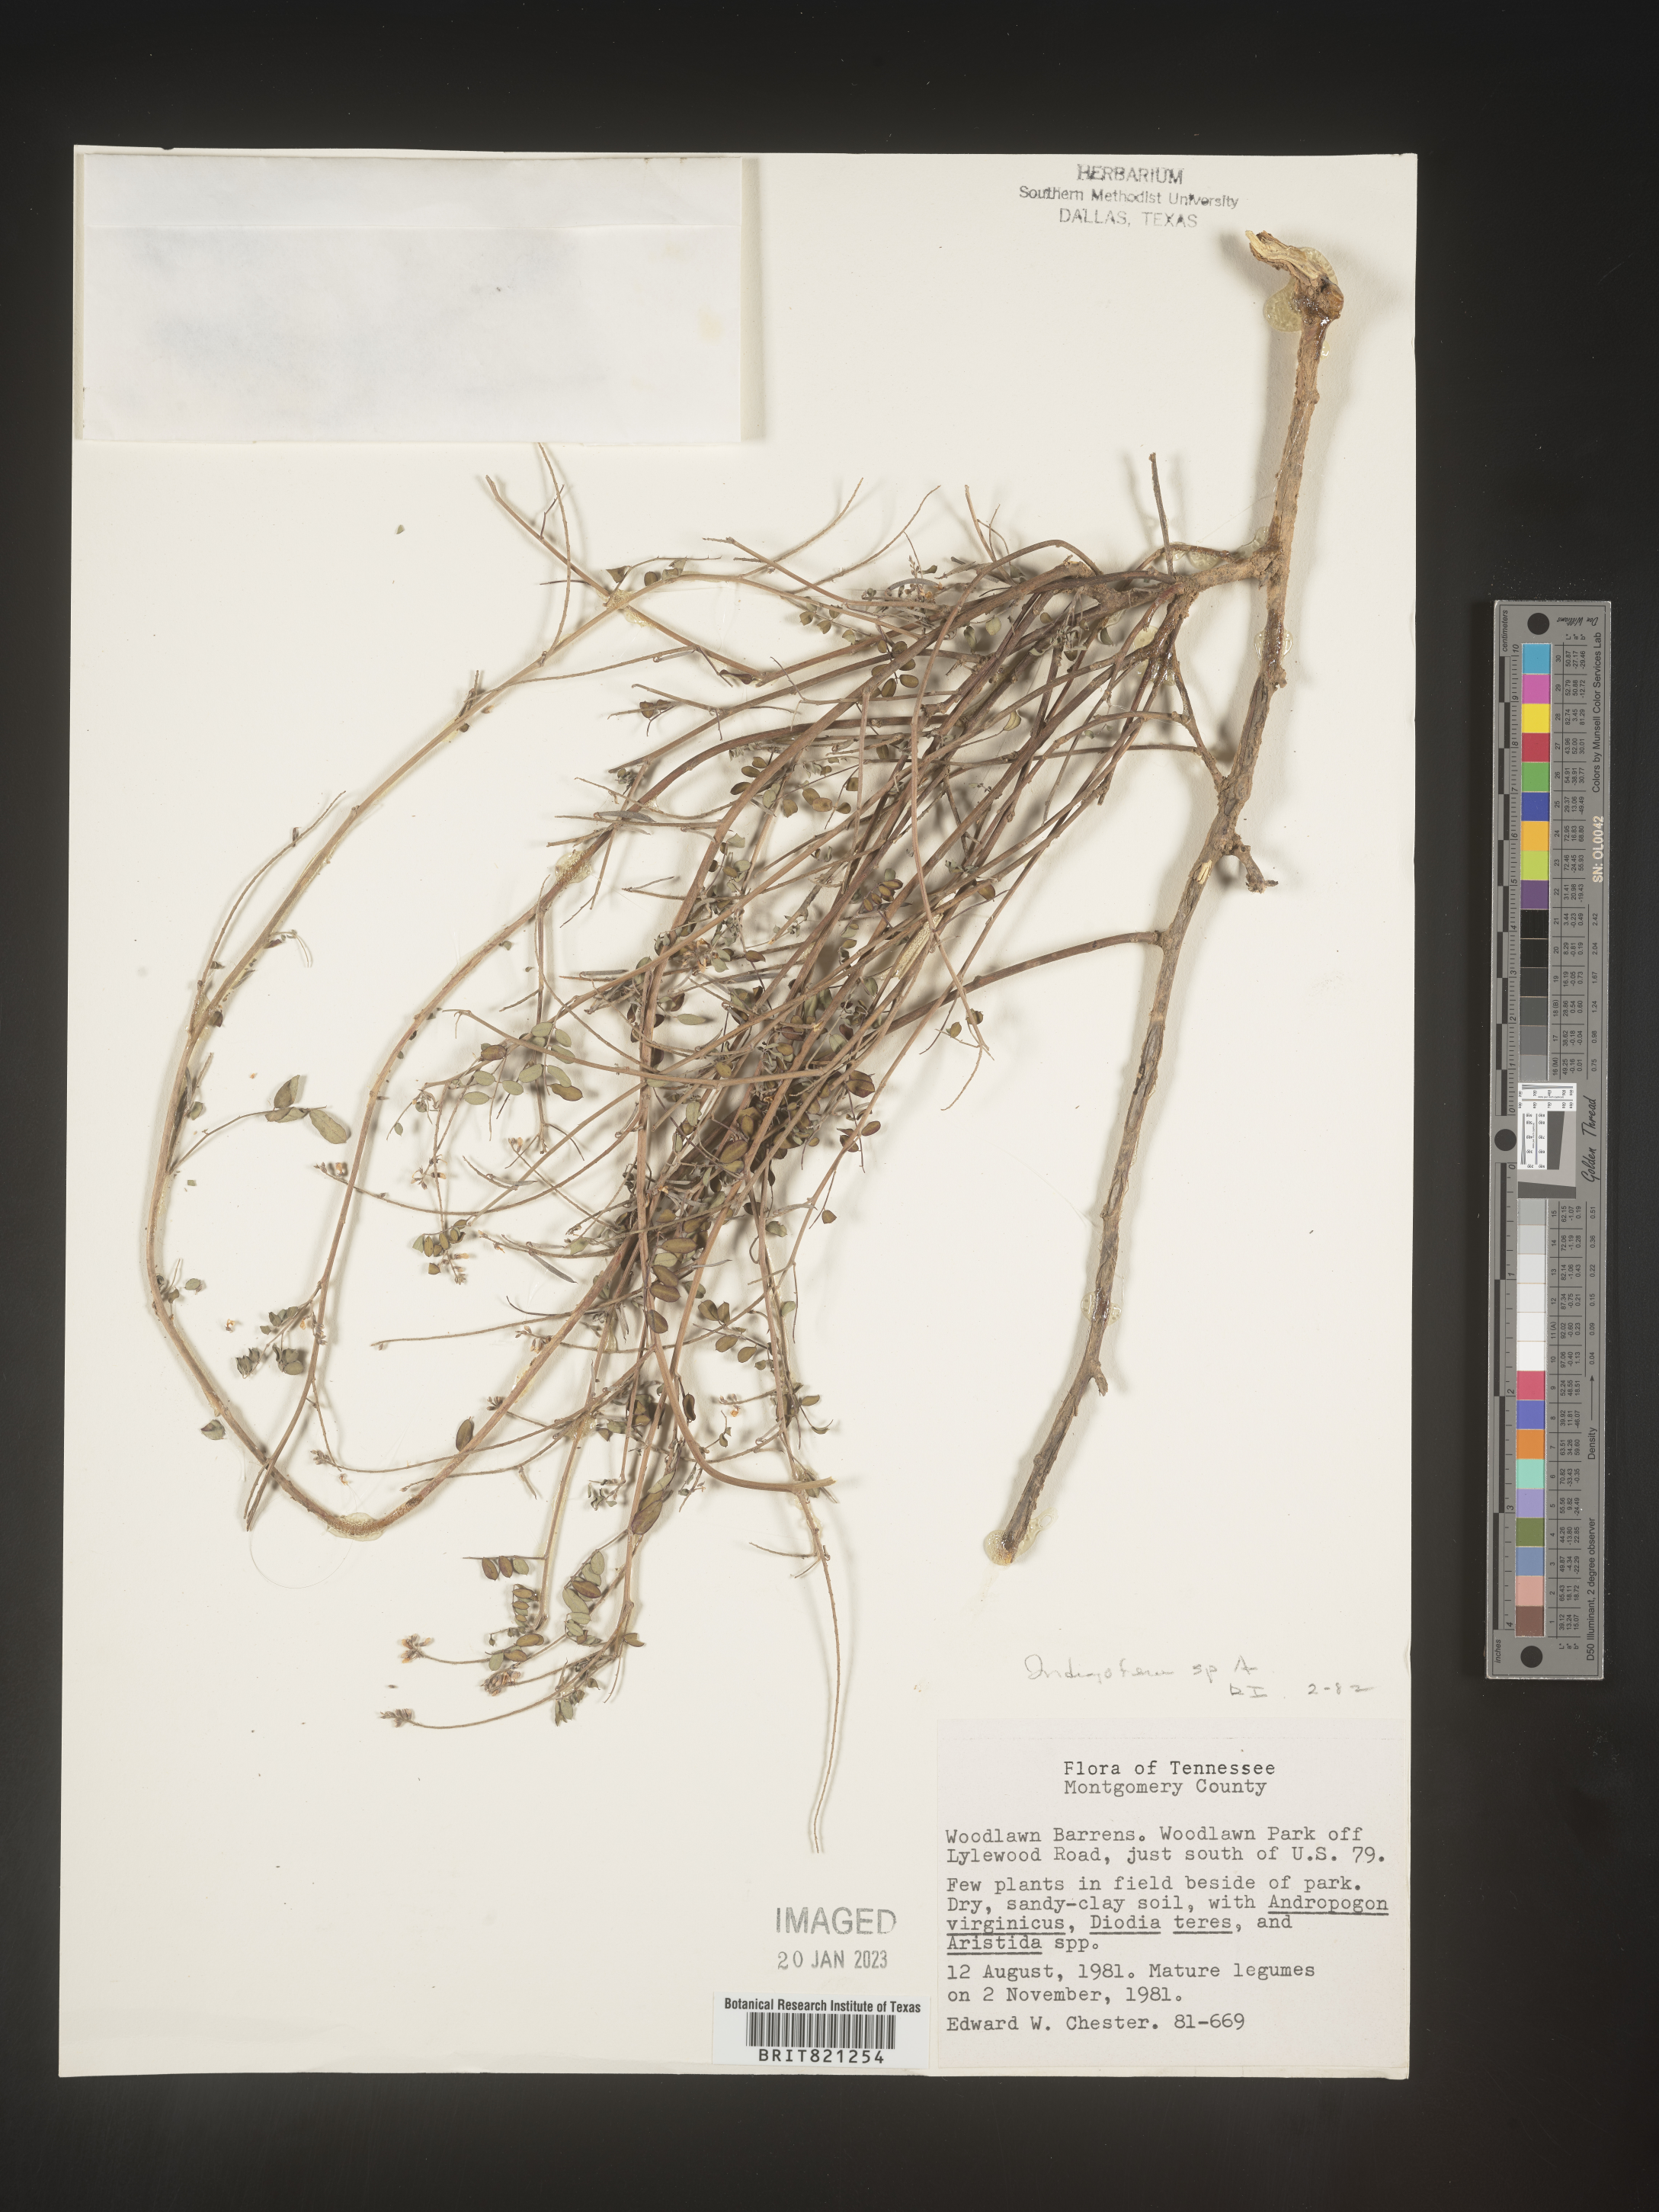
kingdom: Plantae
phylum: Tracheophyta
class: Magnoliopsida
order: Fabales
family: Fabaceae
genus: Indigofera
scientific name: Indigofera
